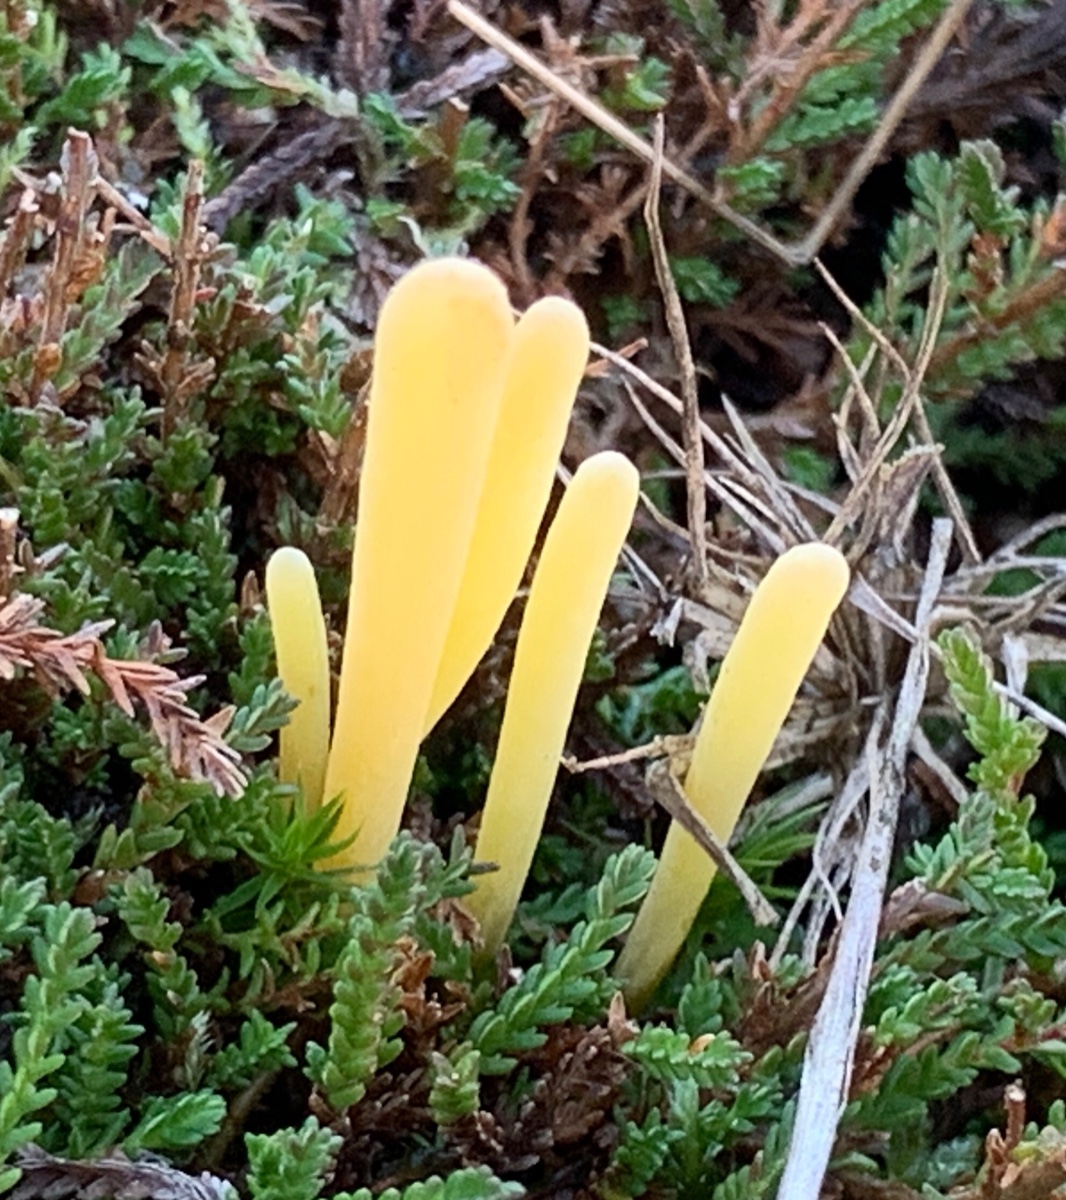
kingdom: Fungi
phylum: Basidiomycota
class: Agaricomycetes
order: Agaricales
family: Clavariaceae
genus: Clavaria
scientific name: Clavaria argillacea
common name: lerfarvet køllesvamp
